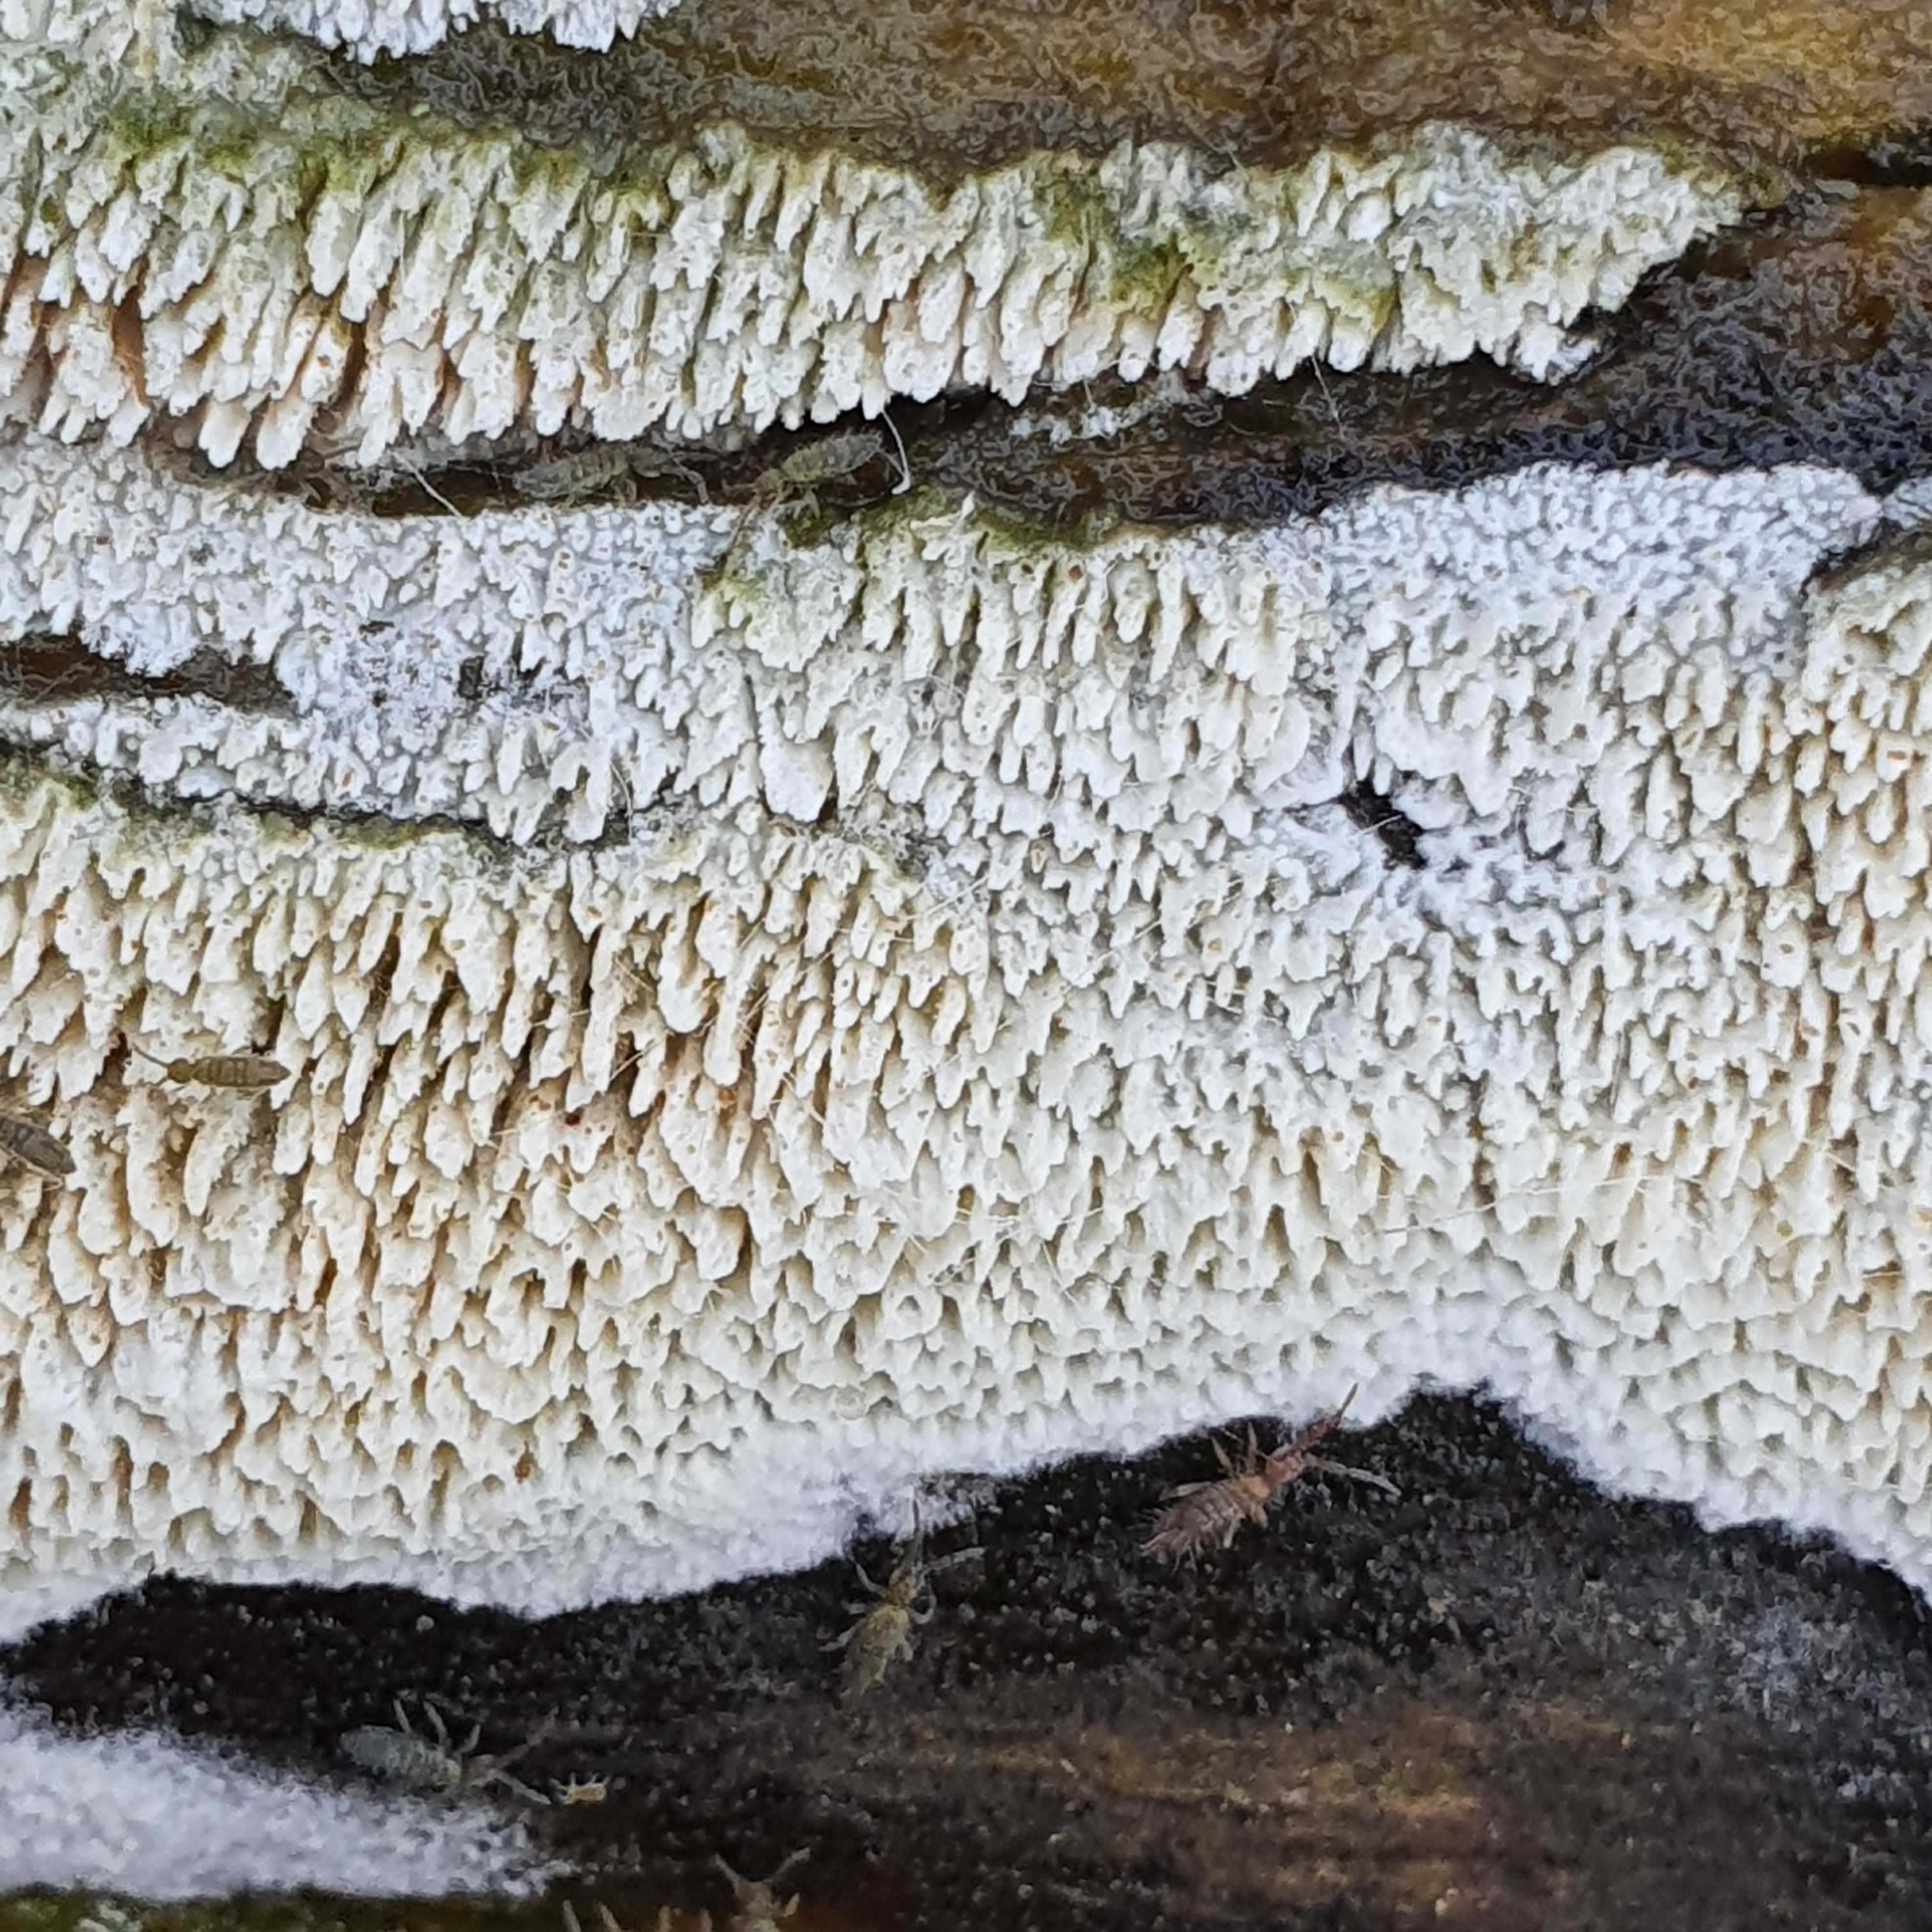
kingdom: Fungi
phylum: Basidiomycota
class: Agaricomycetes
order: Hymenochaetales
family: Schizoporaceae
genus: Schizopora
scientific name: Schizopora paradoxa
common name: hvid tandsvamp
